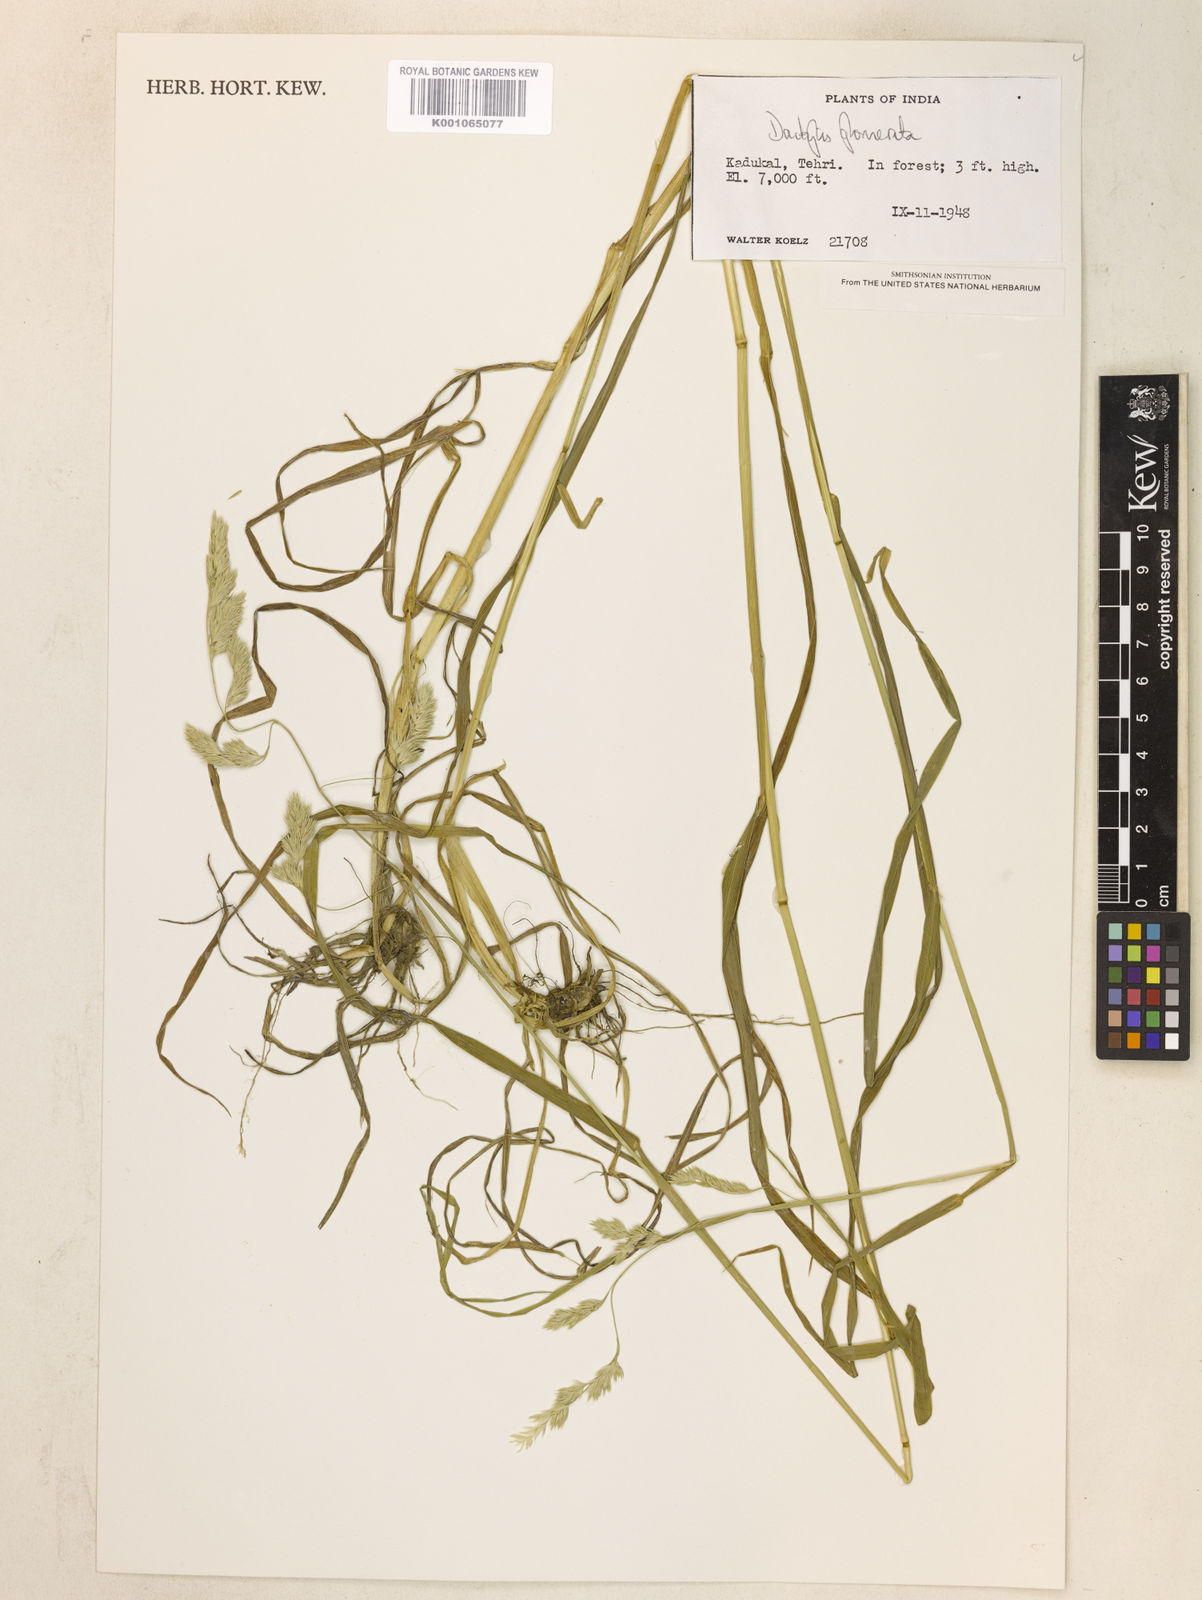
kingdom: Plantae
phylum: Tracheophyta
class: Liliopsida
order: Poales
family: Poaceae
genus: Dactylis
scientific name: Dactylis glomerata
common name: Orchardgrass
